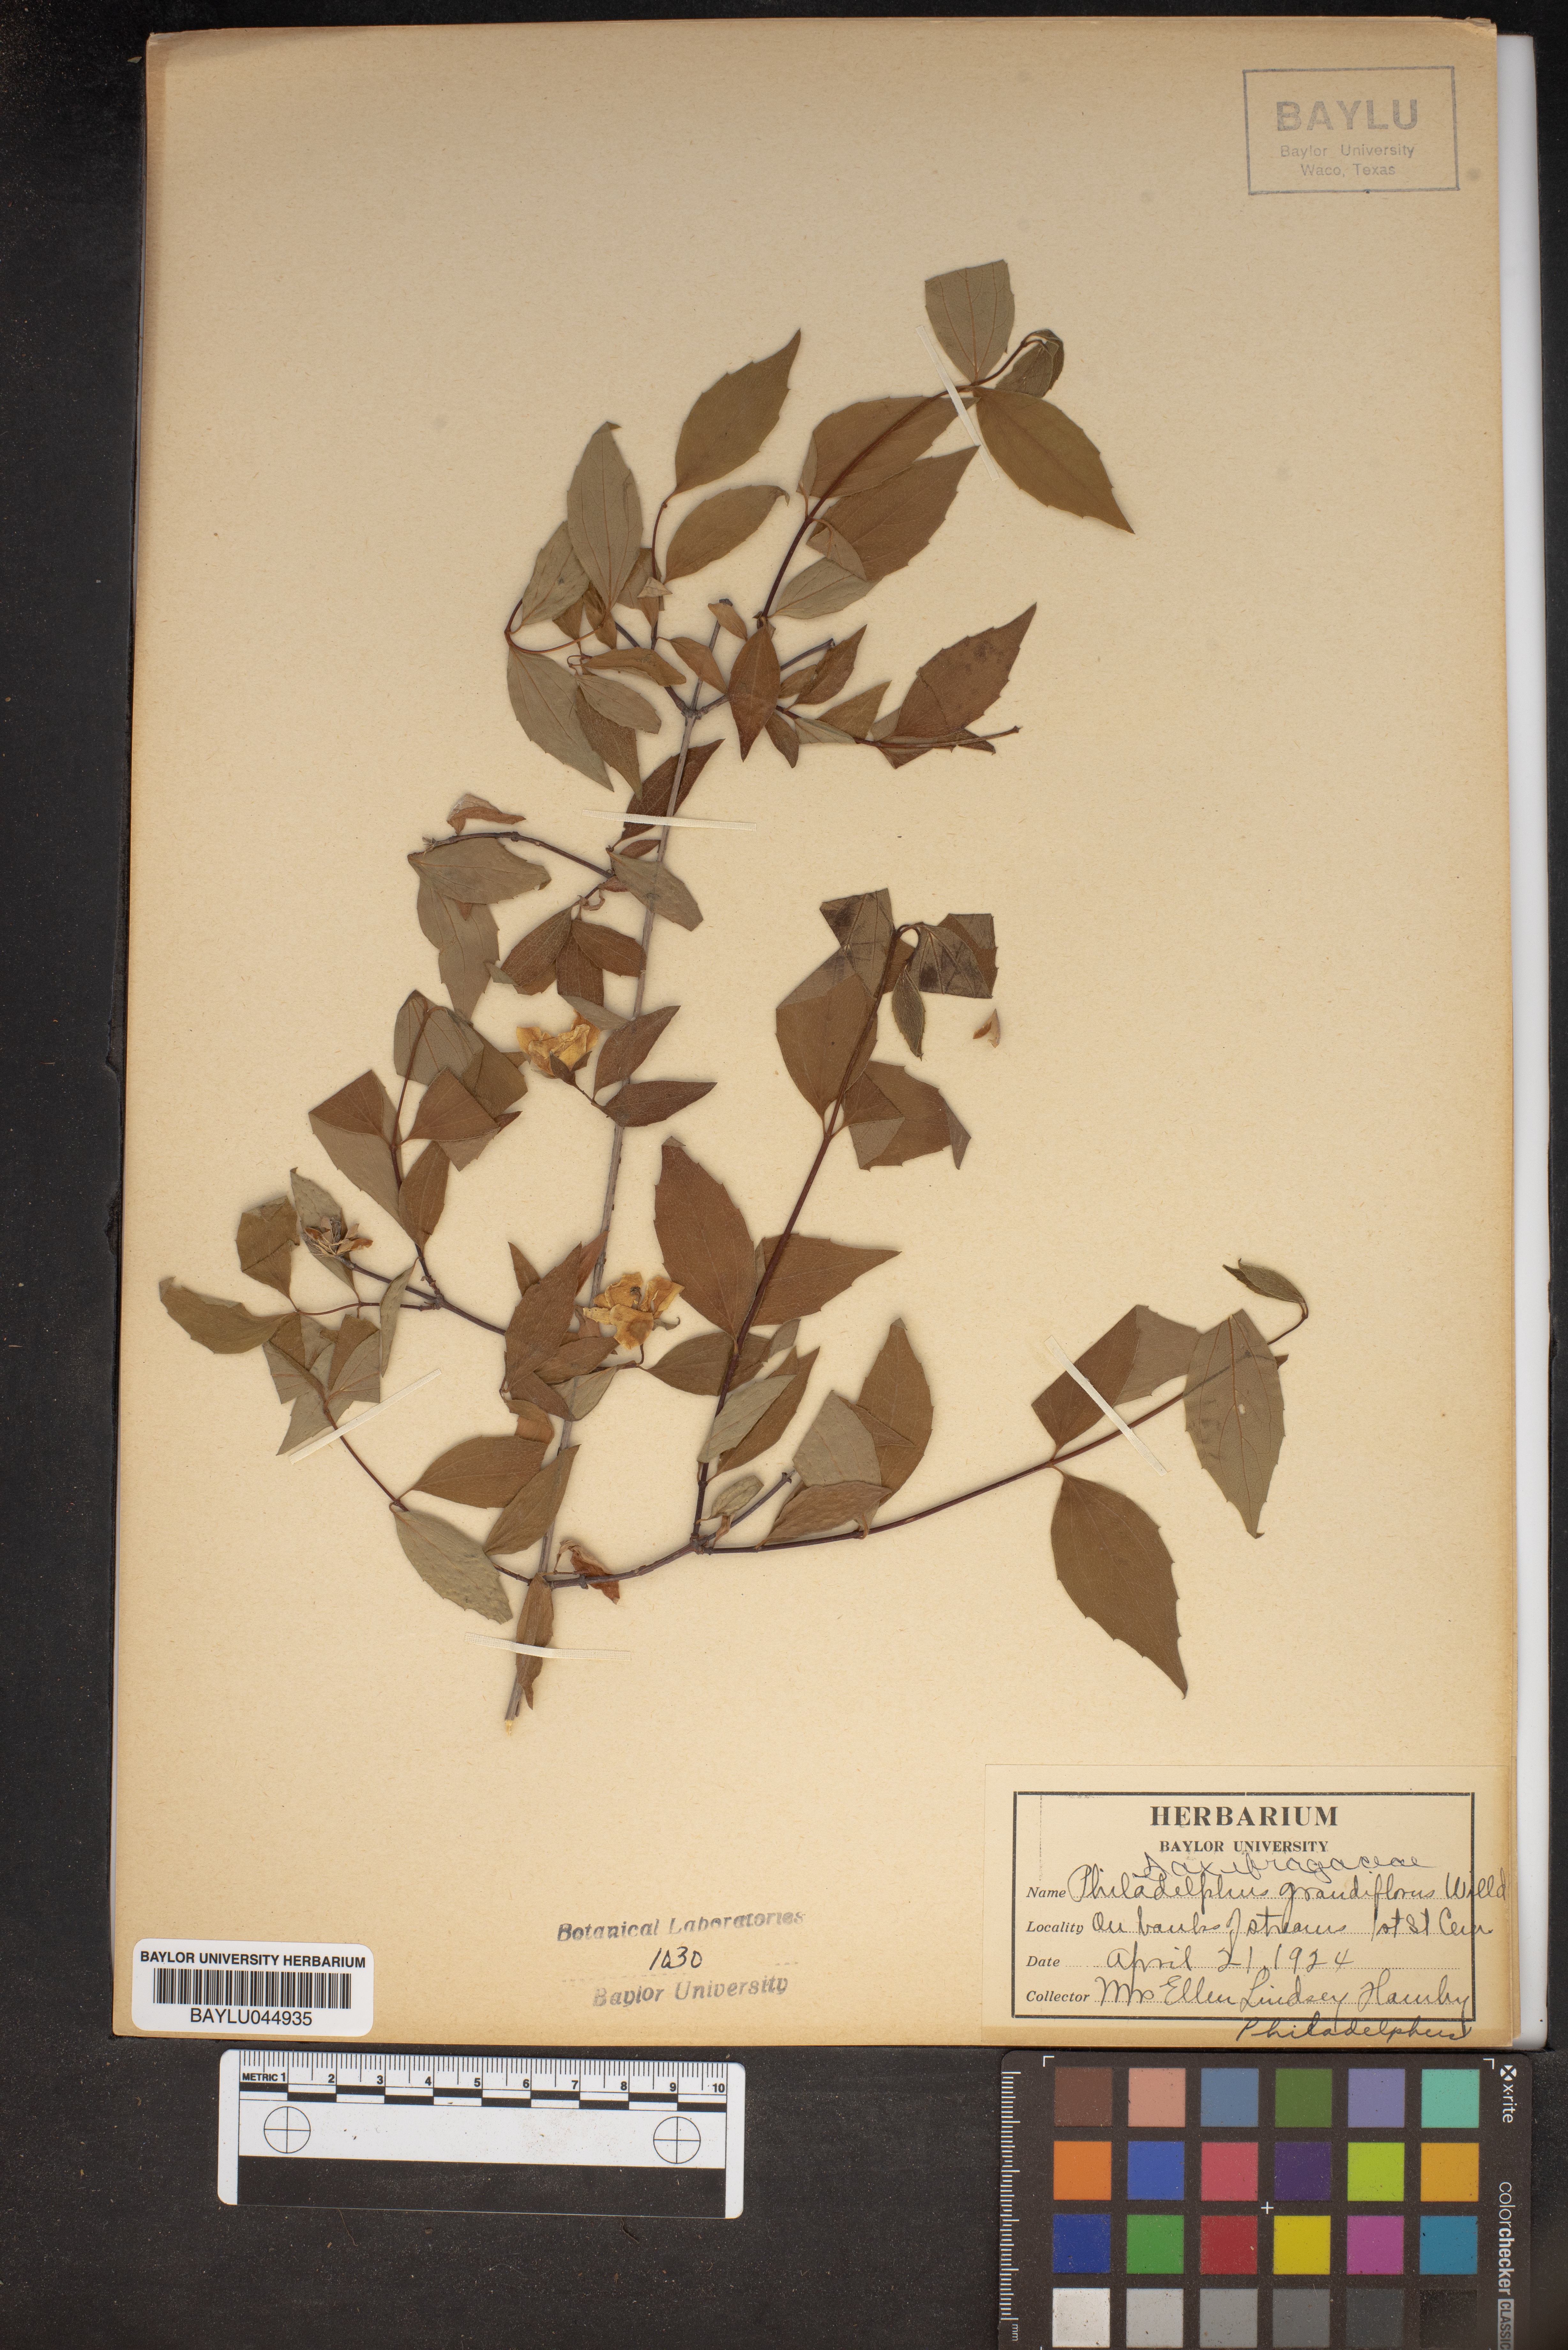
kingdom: Plantae
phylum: Tracheophyta
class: Magnoliopsida
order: Cornales
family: Hydrangeaceae
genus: Philadelphus
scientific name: Philadelphus inodorus
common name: Scentless mock-orange
